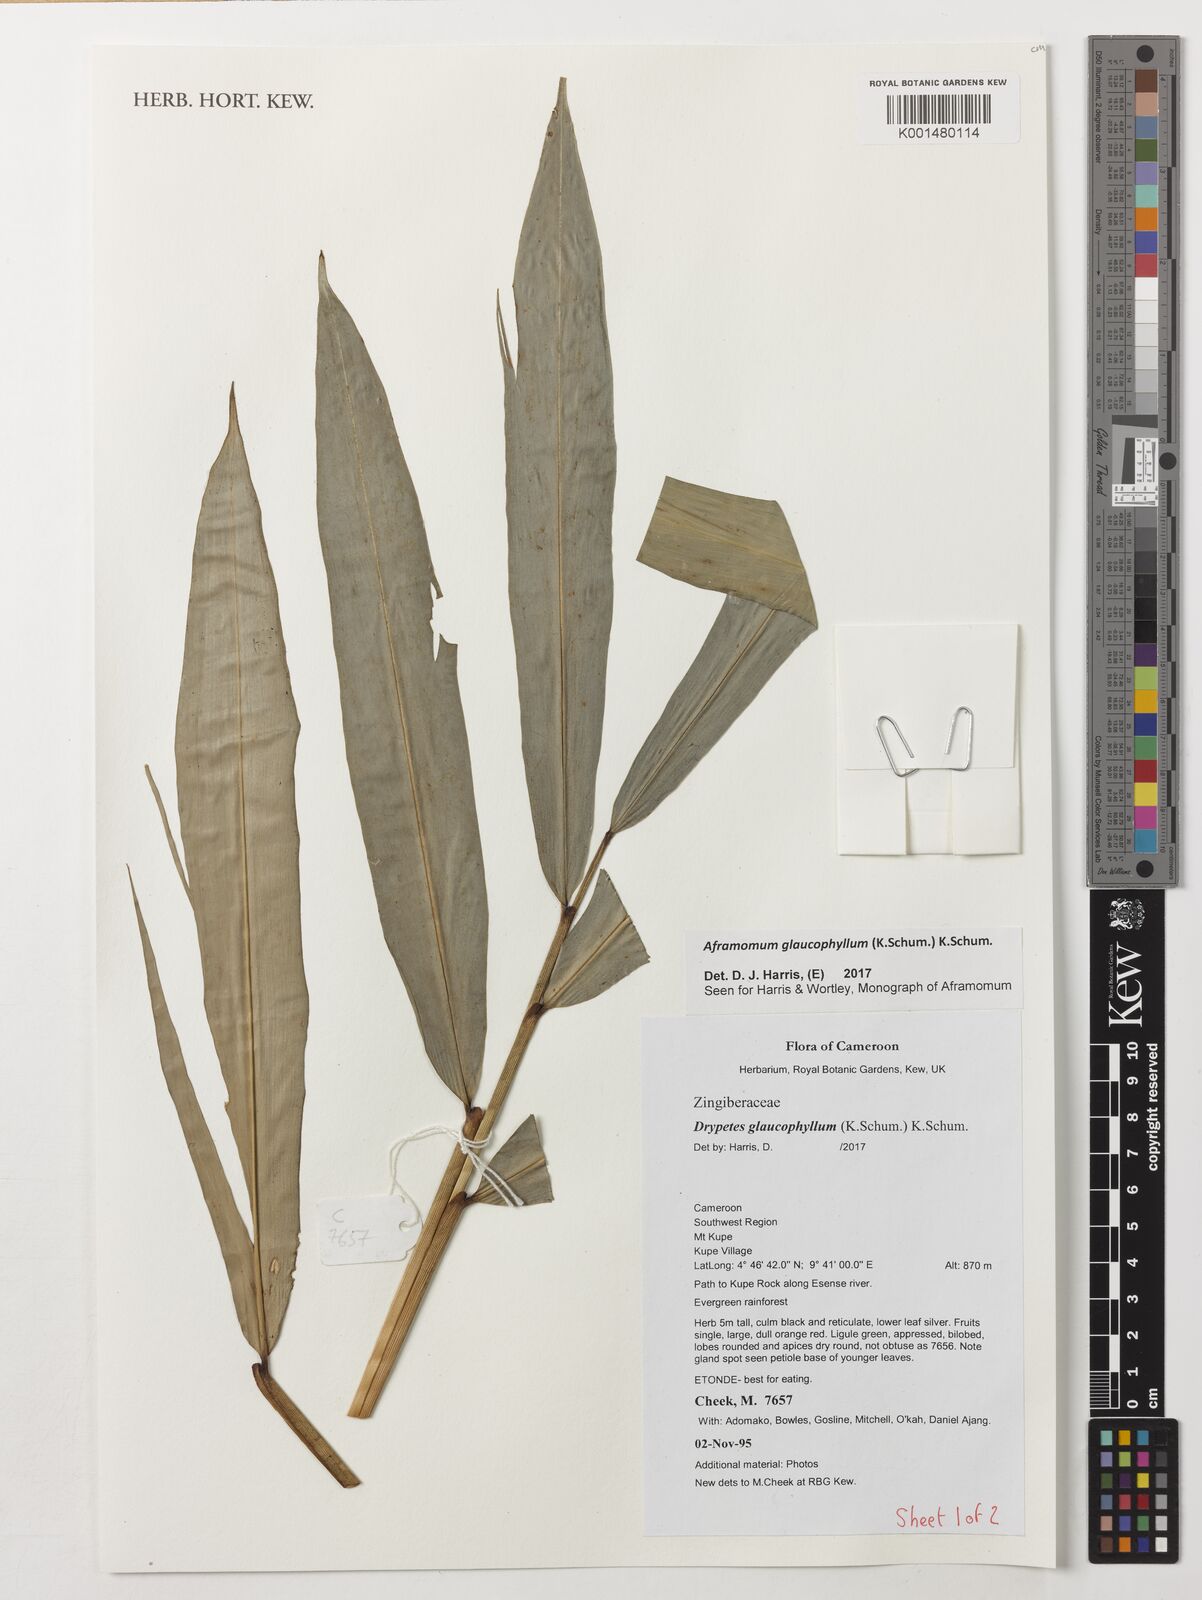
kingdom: Plantae
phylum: Tracheophyta
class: Liliopsida
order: Zingiberales
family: Zingiberaceae
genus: Aframomum
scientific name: Aframomum glaucophyllum
